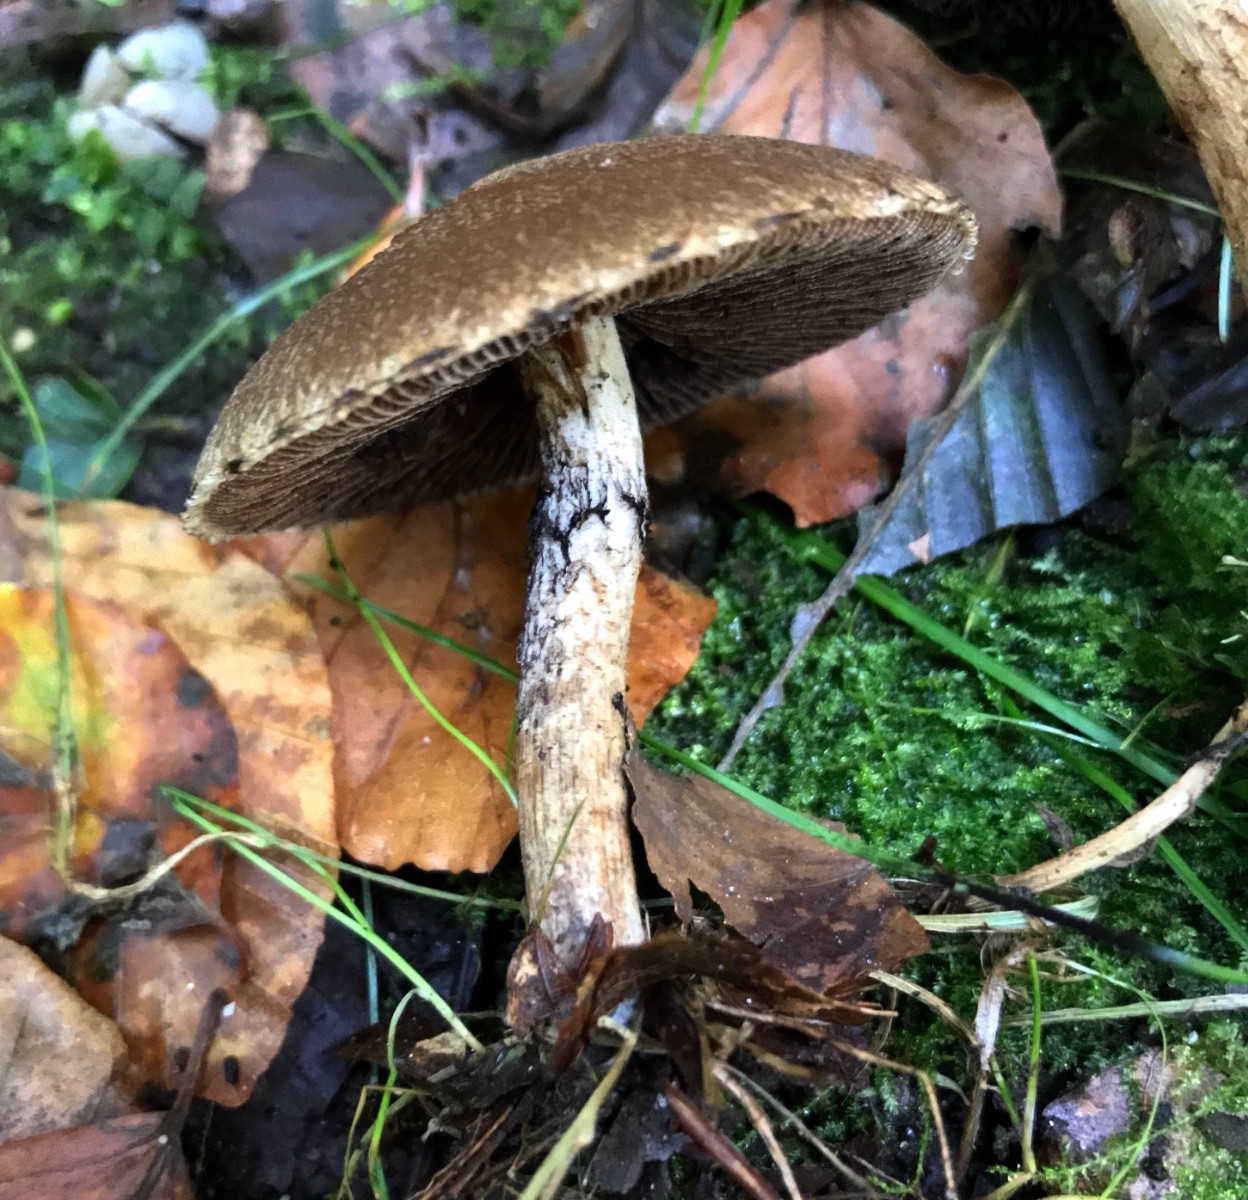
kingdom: Fungi
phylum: Basidiomycota
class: Agaricomycetes
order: Agaricales
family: Psathyrellaceae
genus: Lacrymaria
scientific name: Lacrymaria lacrymabunda
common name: grædende mørkhat
